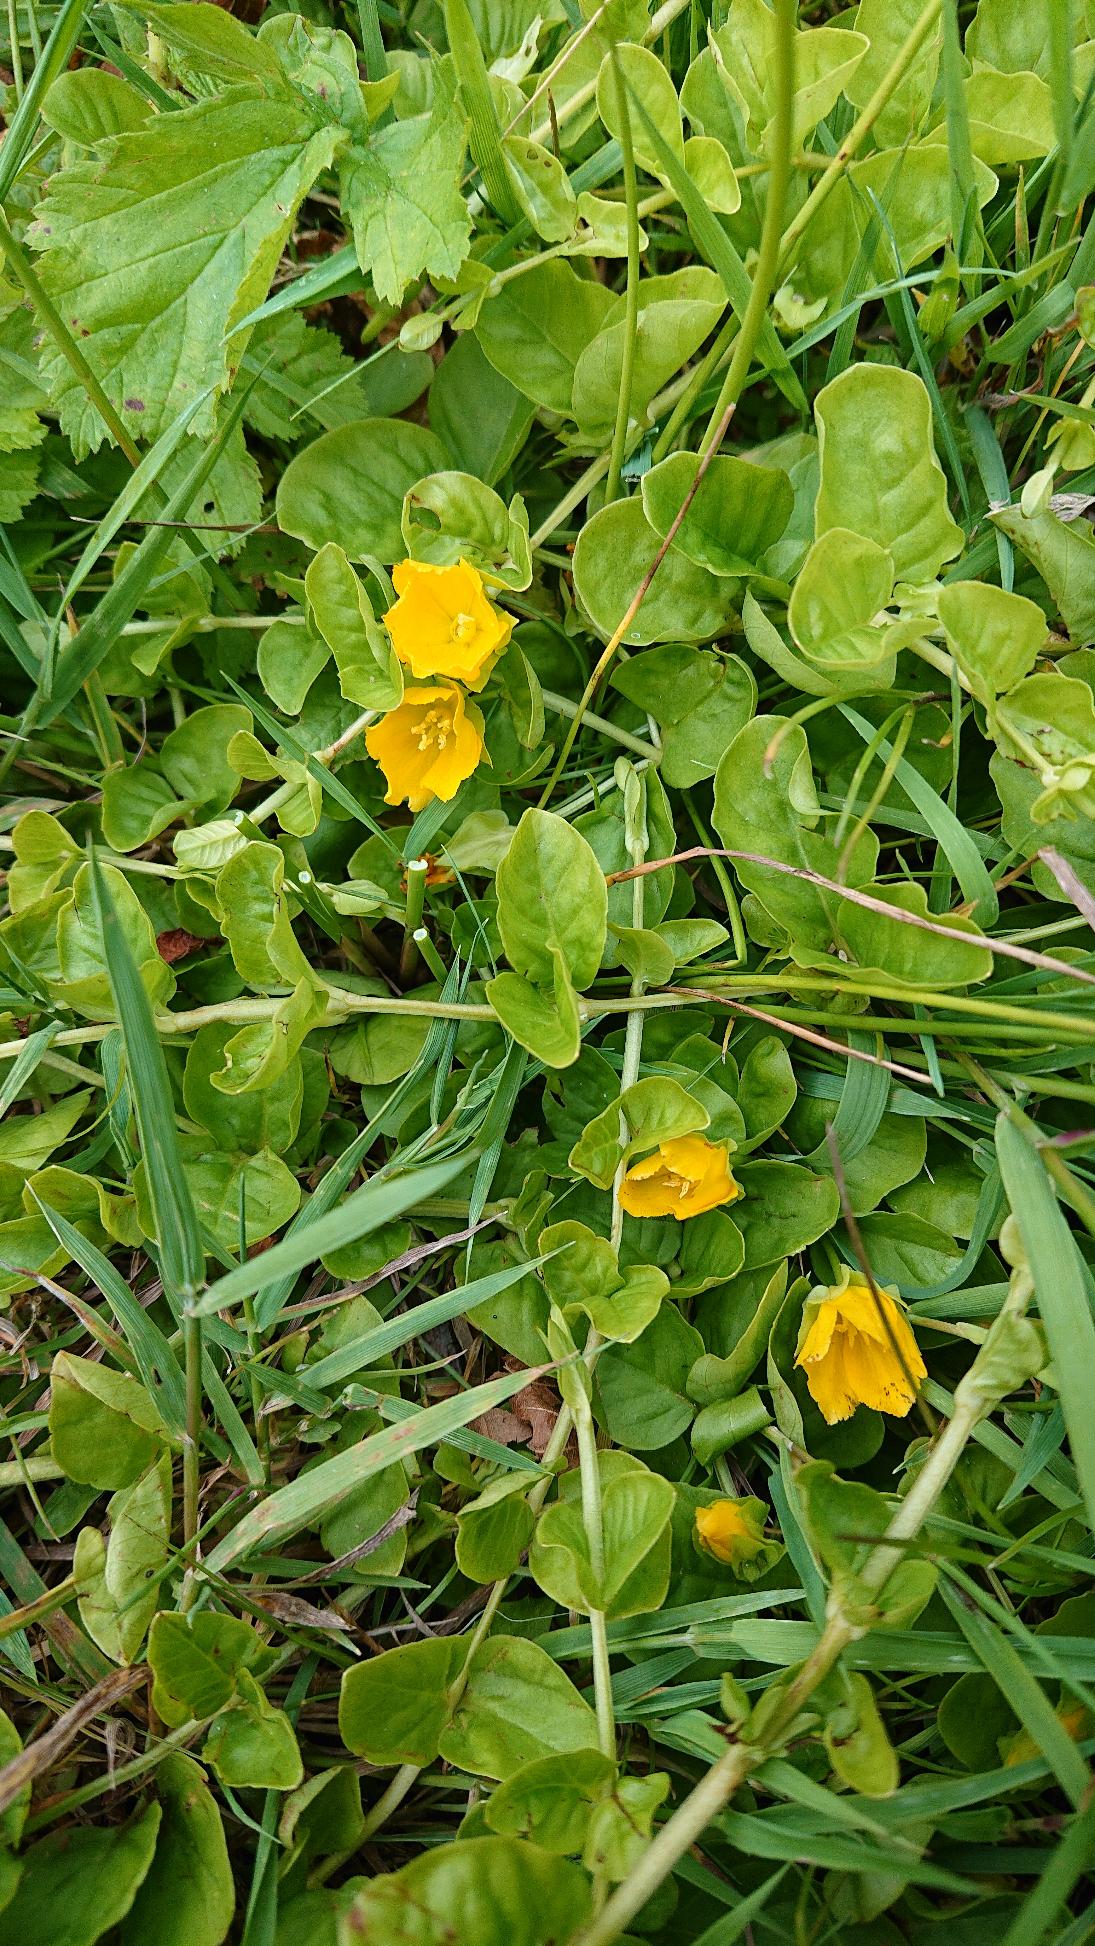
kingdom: Plantae
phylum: Tracheophyta
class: Magnoliopsida
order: Ericales
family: Primulaceae
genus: Lysimachia
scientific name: Lysimachia nummularia
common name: Pengebladet fredløs
